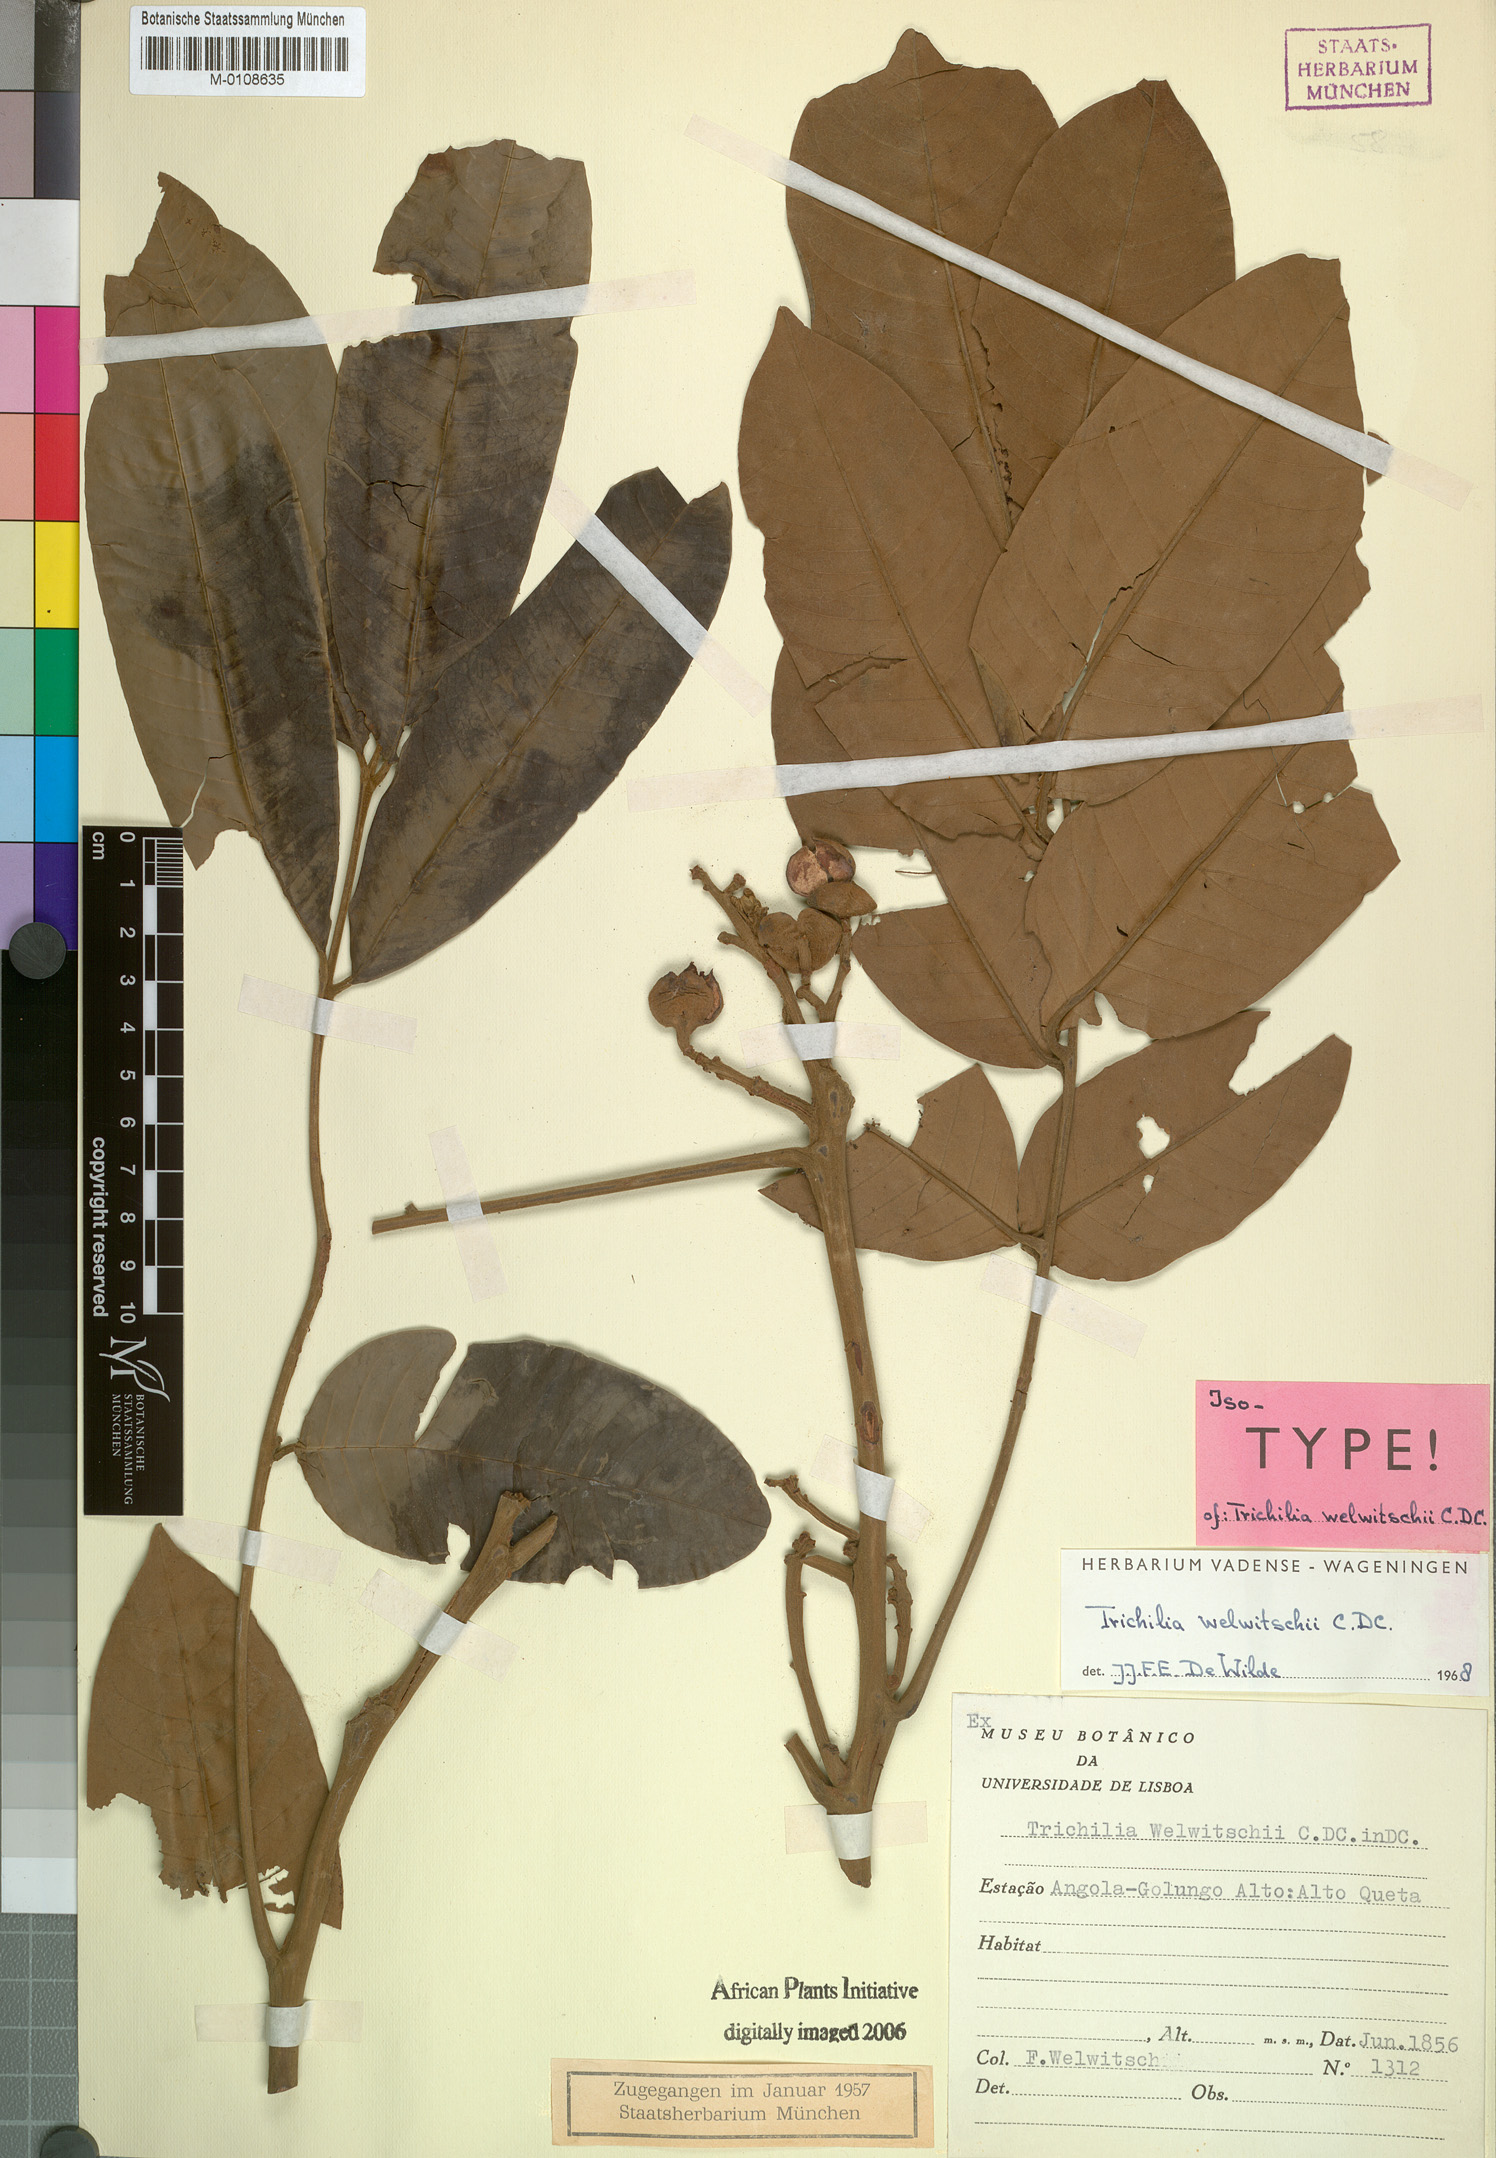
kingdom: Plantae
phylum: Tracheophyta
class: Magnoliopsida
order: Sapindales
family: Meliaceae
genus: Trichilia
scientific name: Trichilia welwitschii
